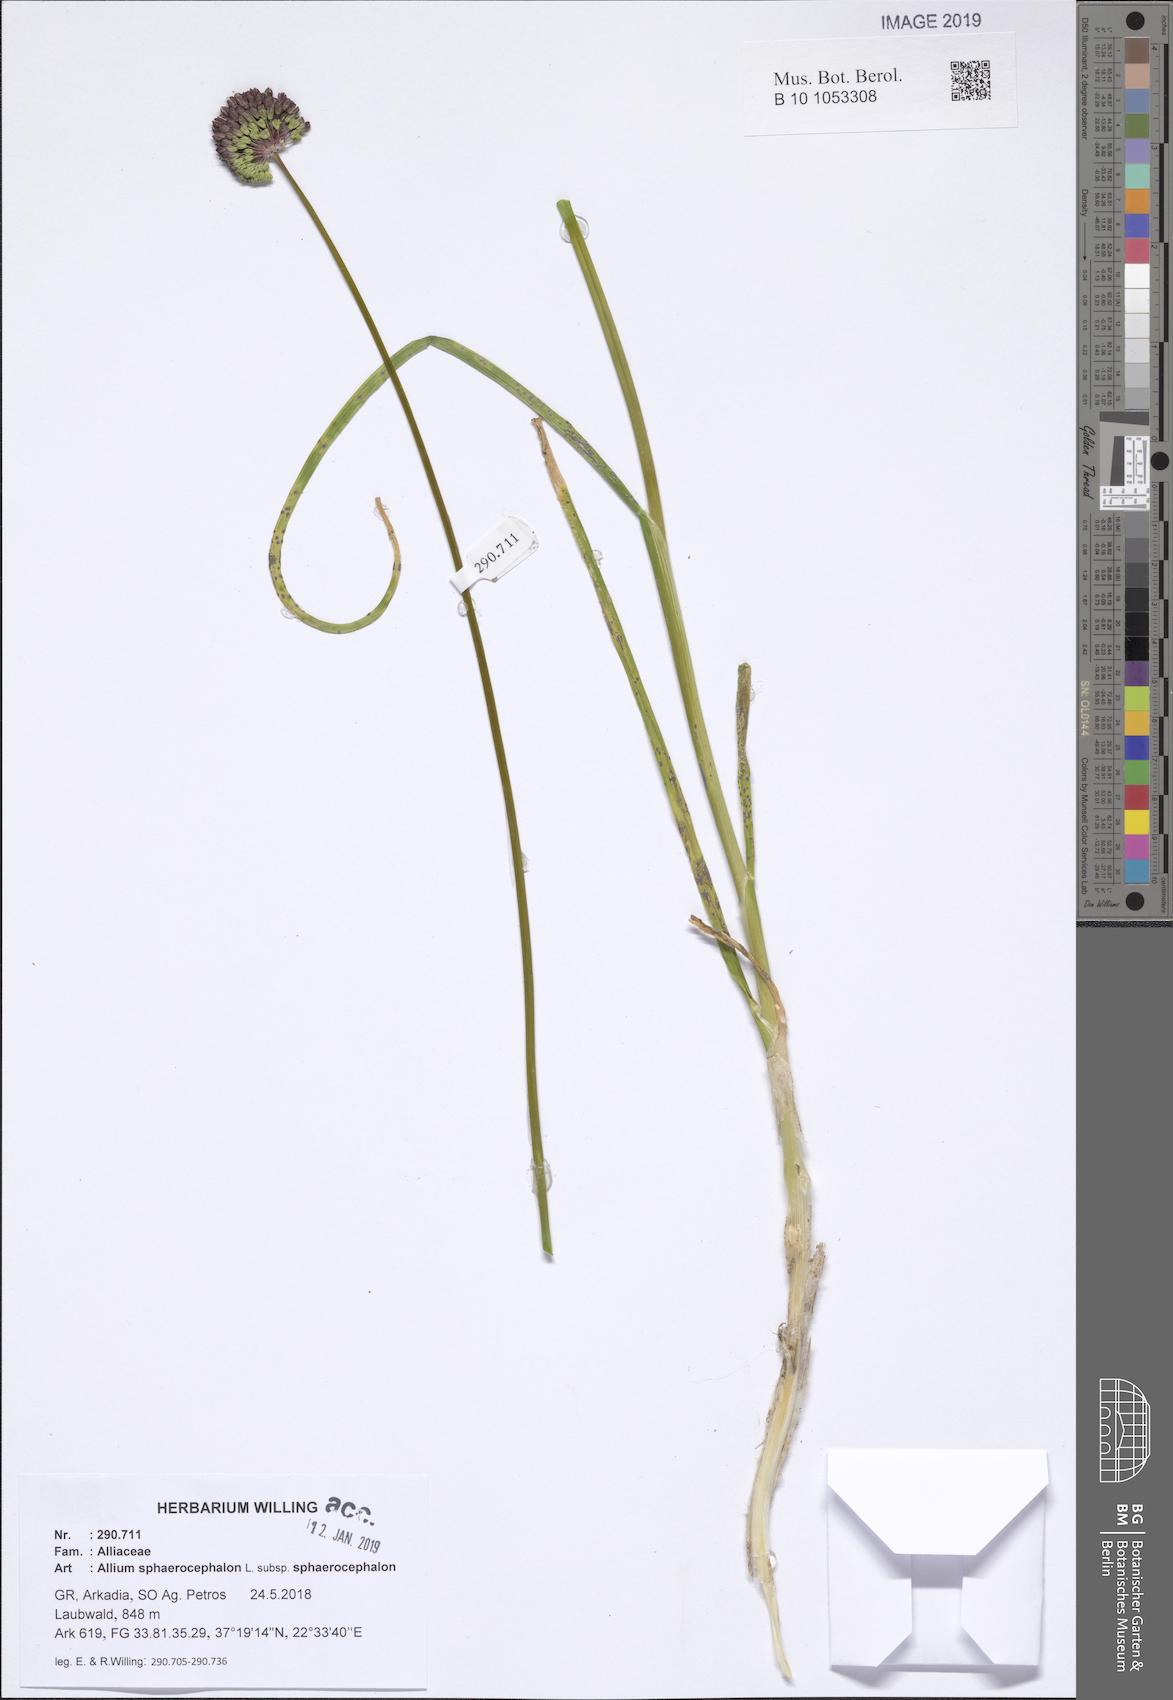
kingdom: Plantae
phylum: Tracheophyta
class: Liliopsida
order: Asparagales
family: Amaryllidaceae
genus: Allium
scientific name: Allium sphaerocephalon
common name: Round-headed leek
